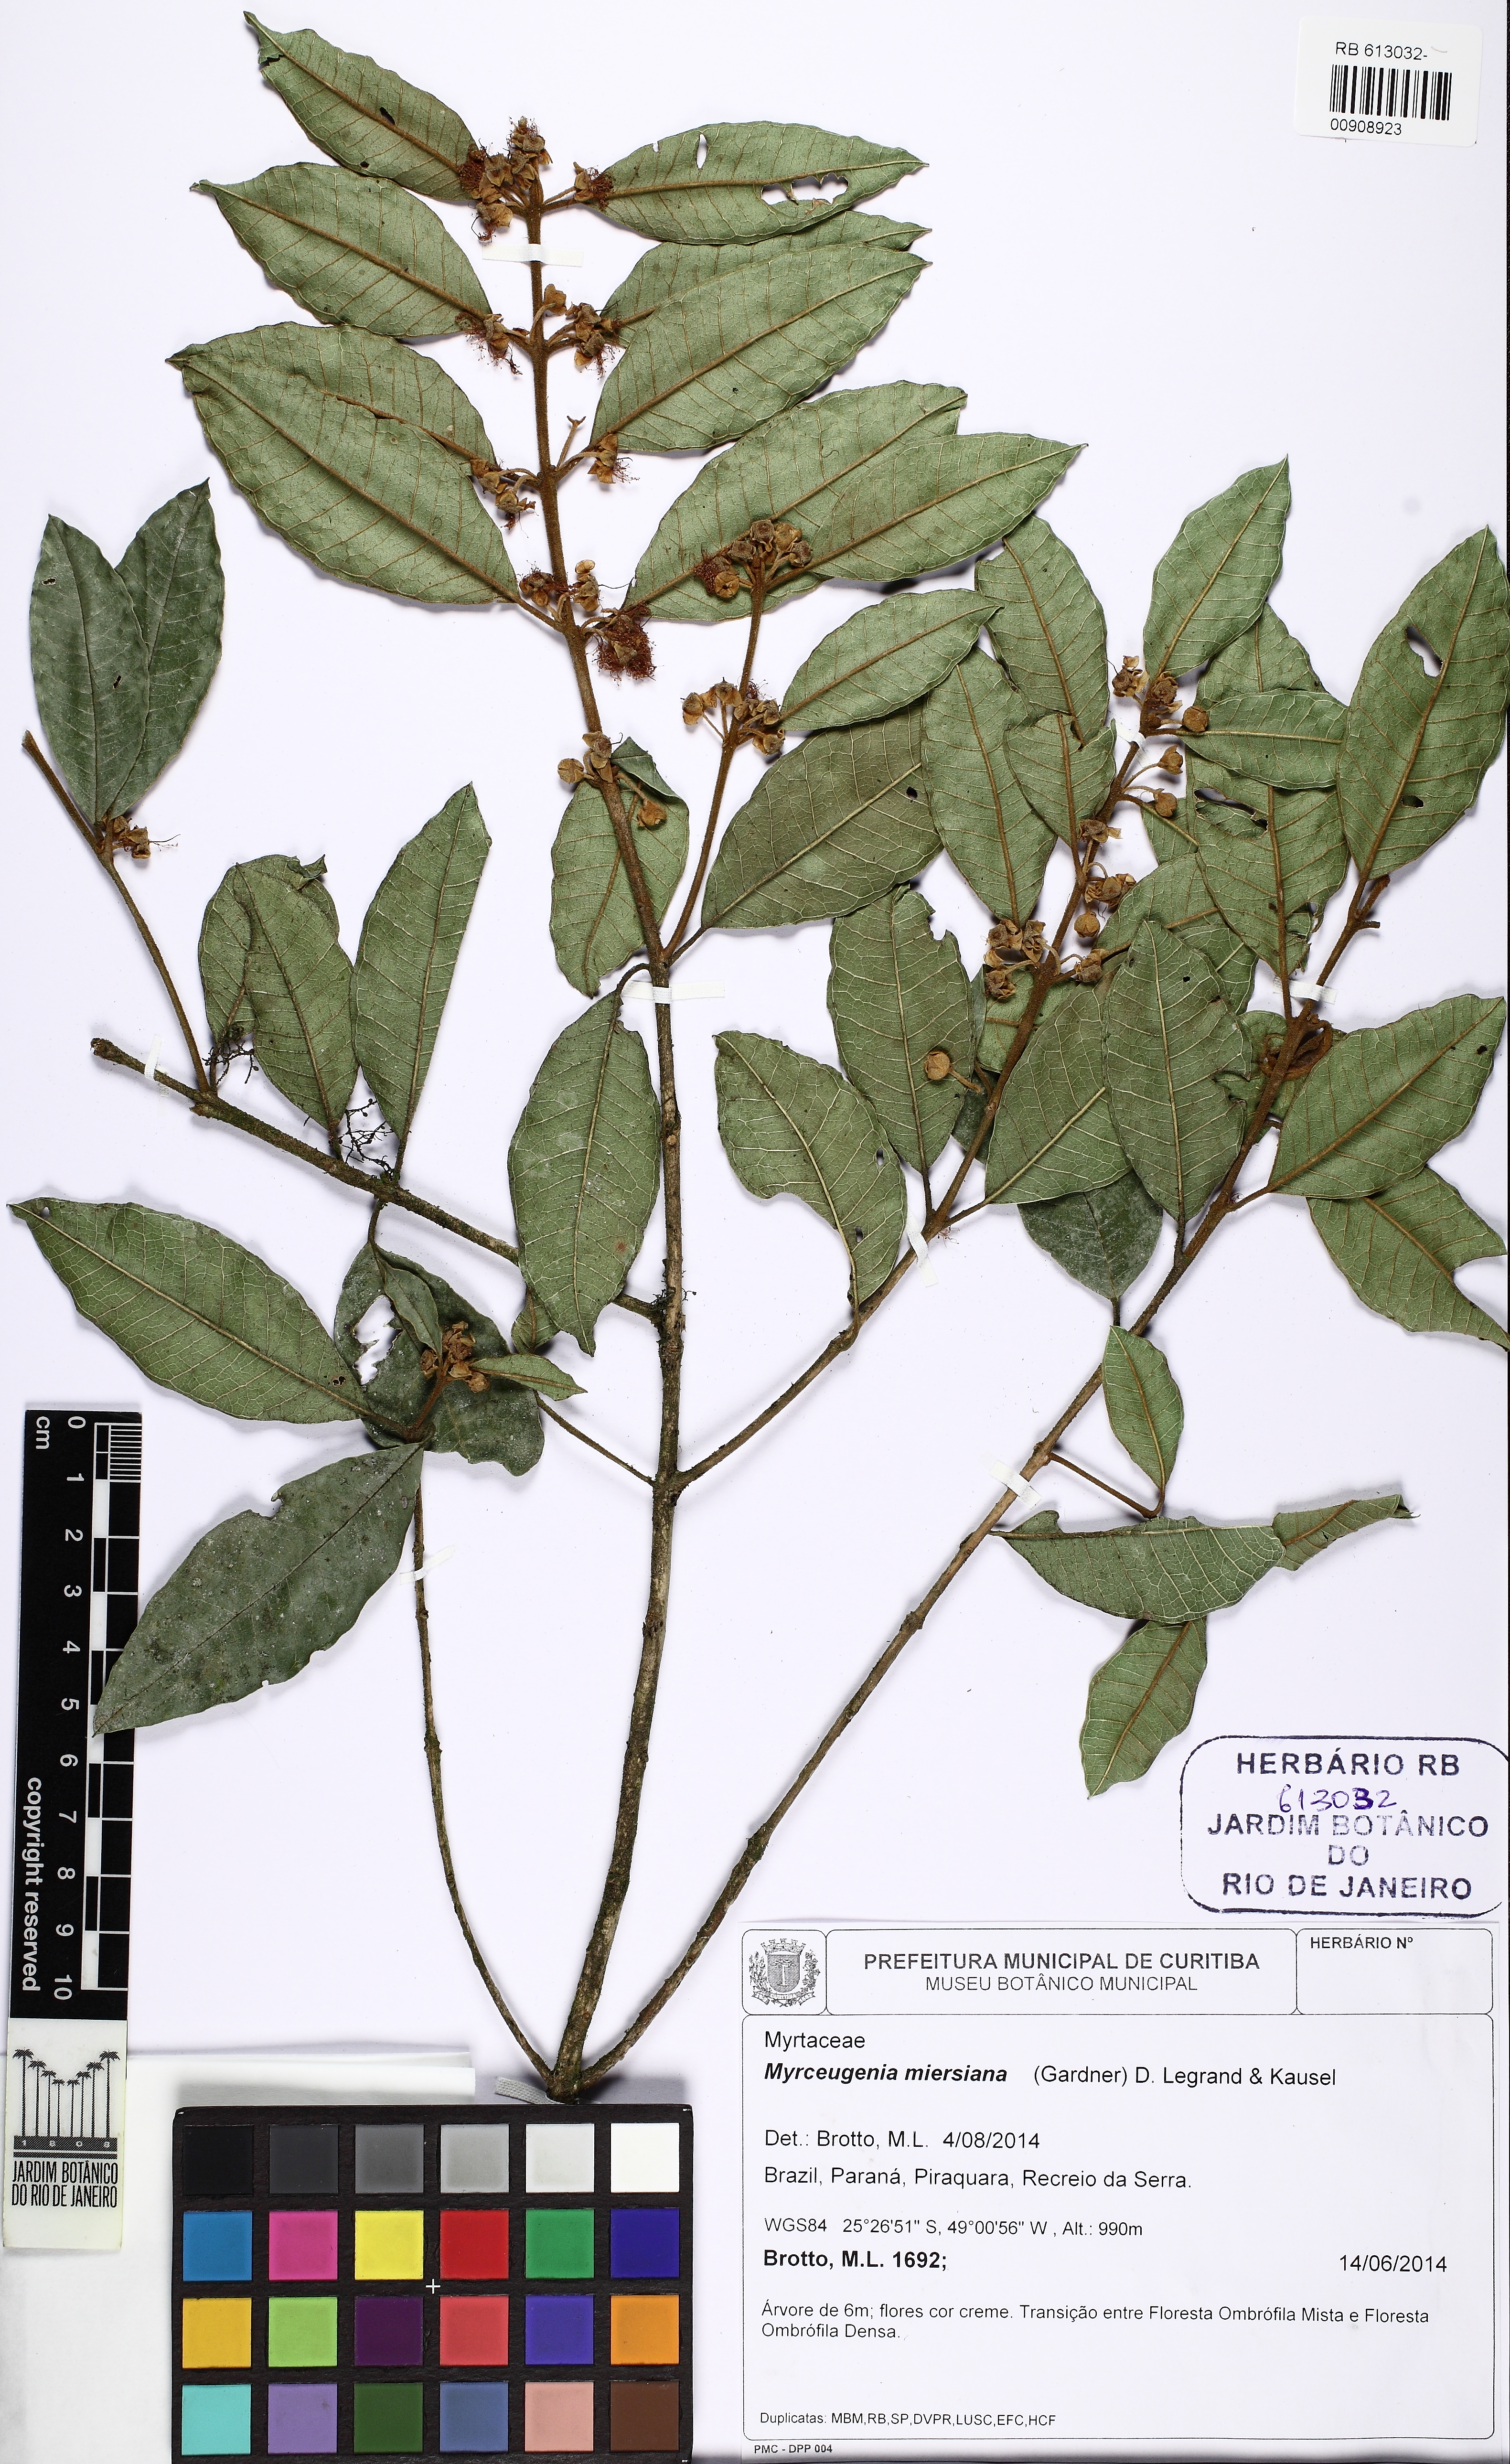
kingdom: Plantae
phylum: Tracheophyta
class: Magnoliopsida
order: Myrtales
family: Myrtaceae
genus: Myrceugenia
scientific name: Myrceugenia miersiana
